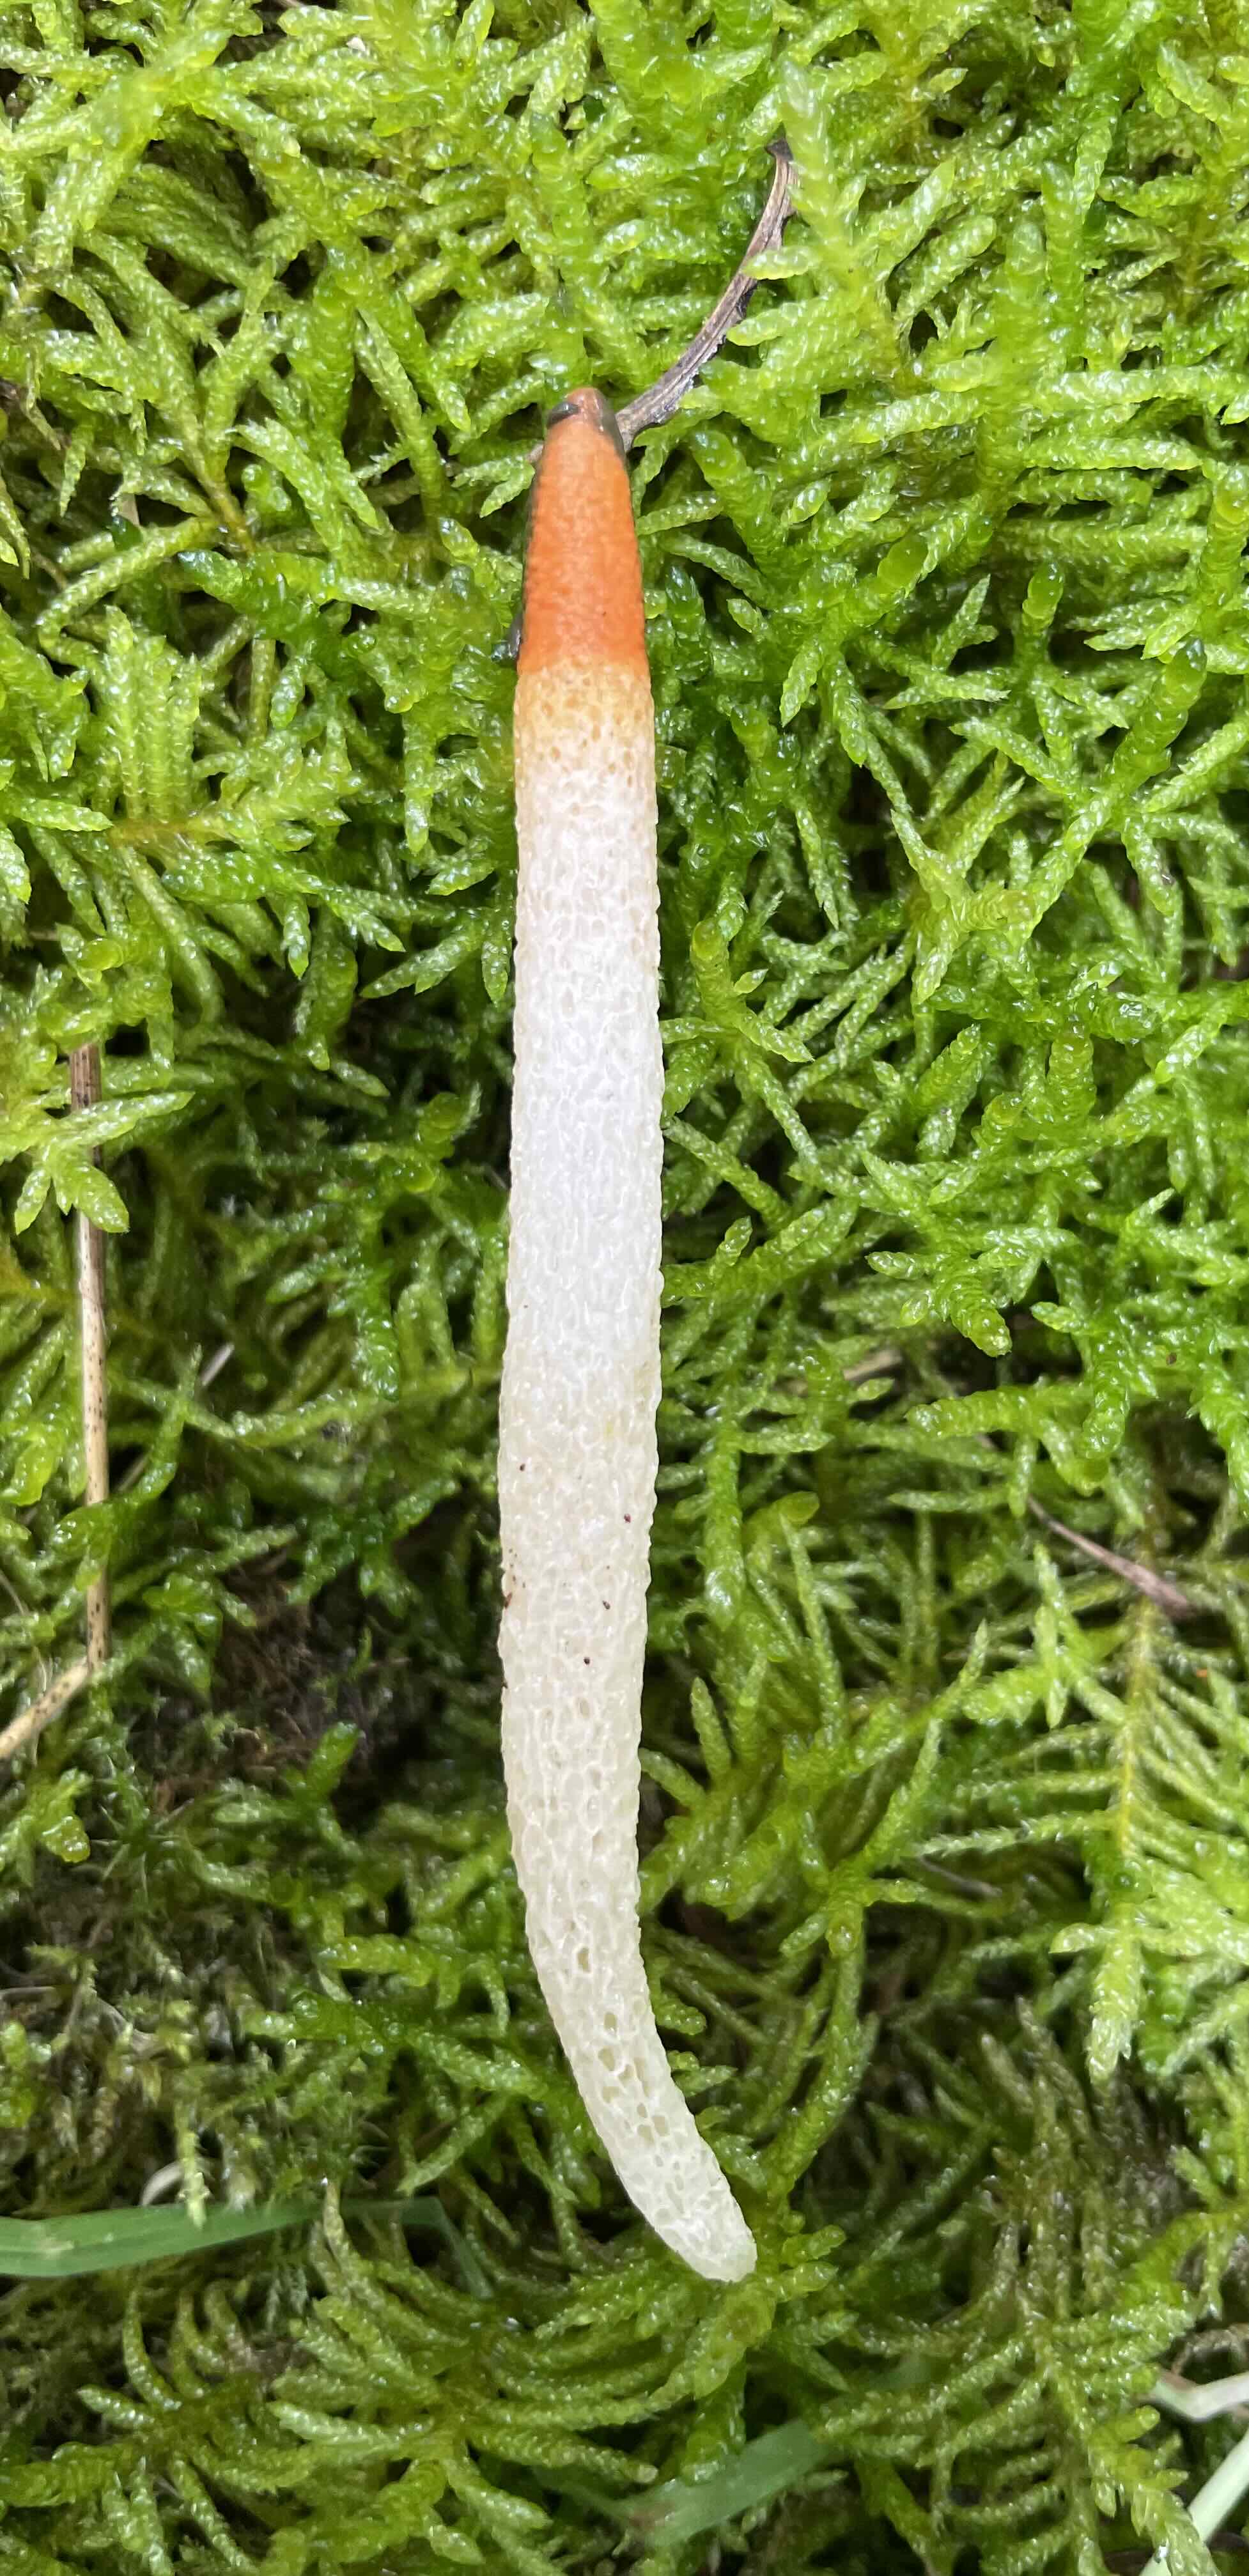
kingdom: Fungi
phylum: Basidiomycota
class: Agaricomycetes
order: Phallales
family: Phallaceae
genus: Mutinus
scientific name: Mutinus caninus
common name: hunde-stinksvamp
